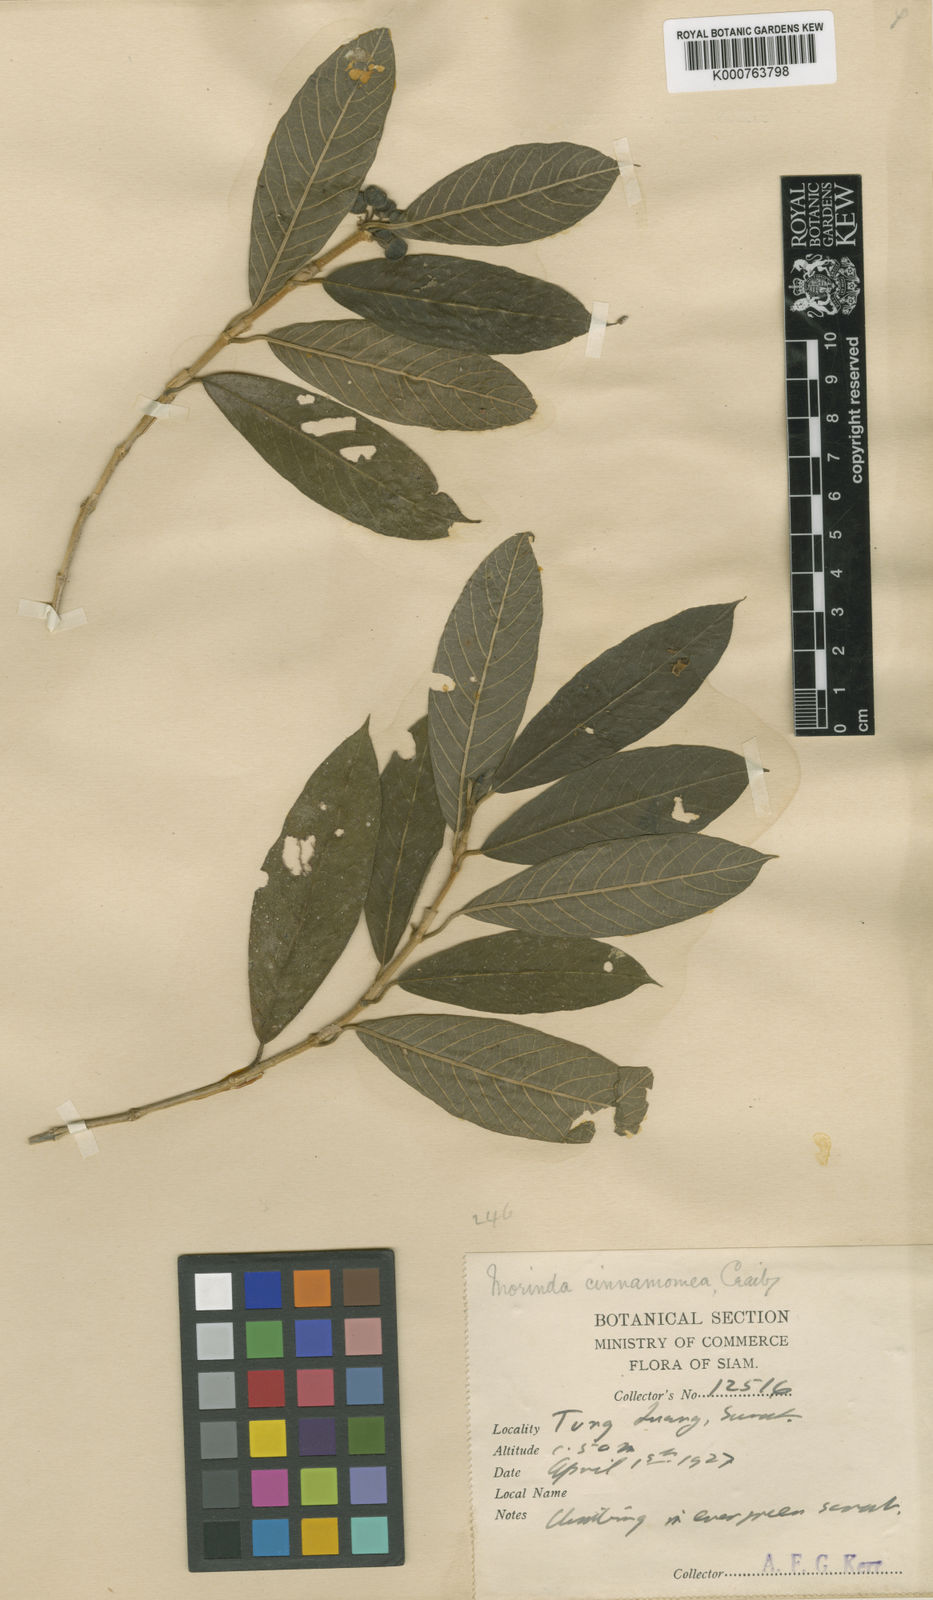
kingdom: Plantae
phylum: Tracheophyta
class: Magnoliopsida
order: Gentianales
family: Rubiaceae
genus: Gynochthodes
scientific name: Gynochthodes villosa
